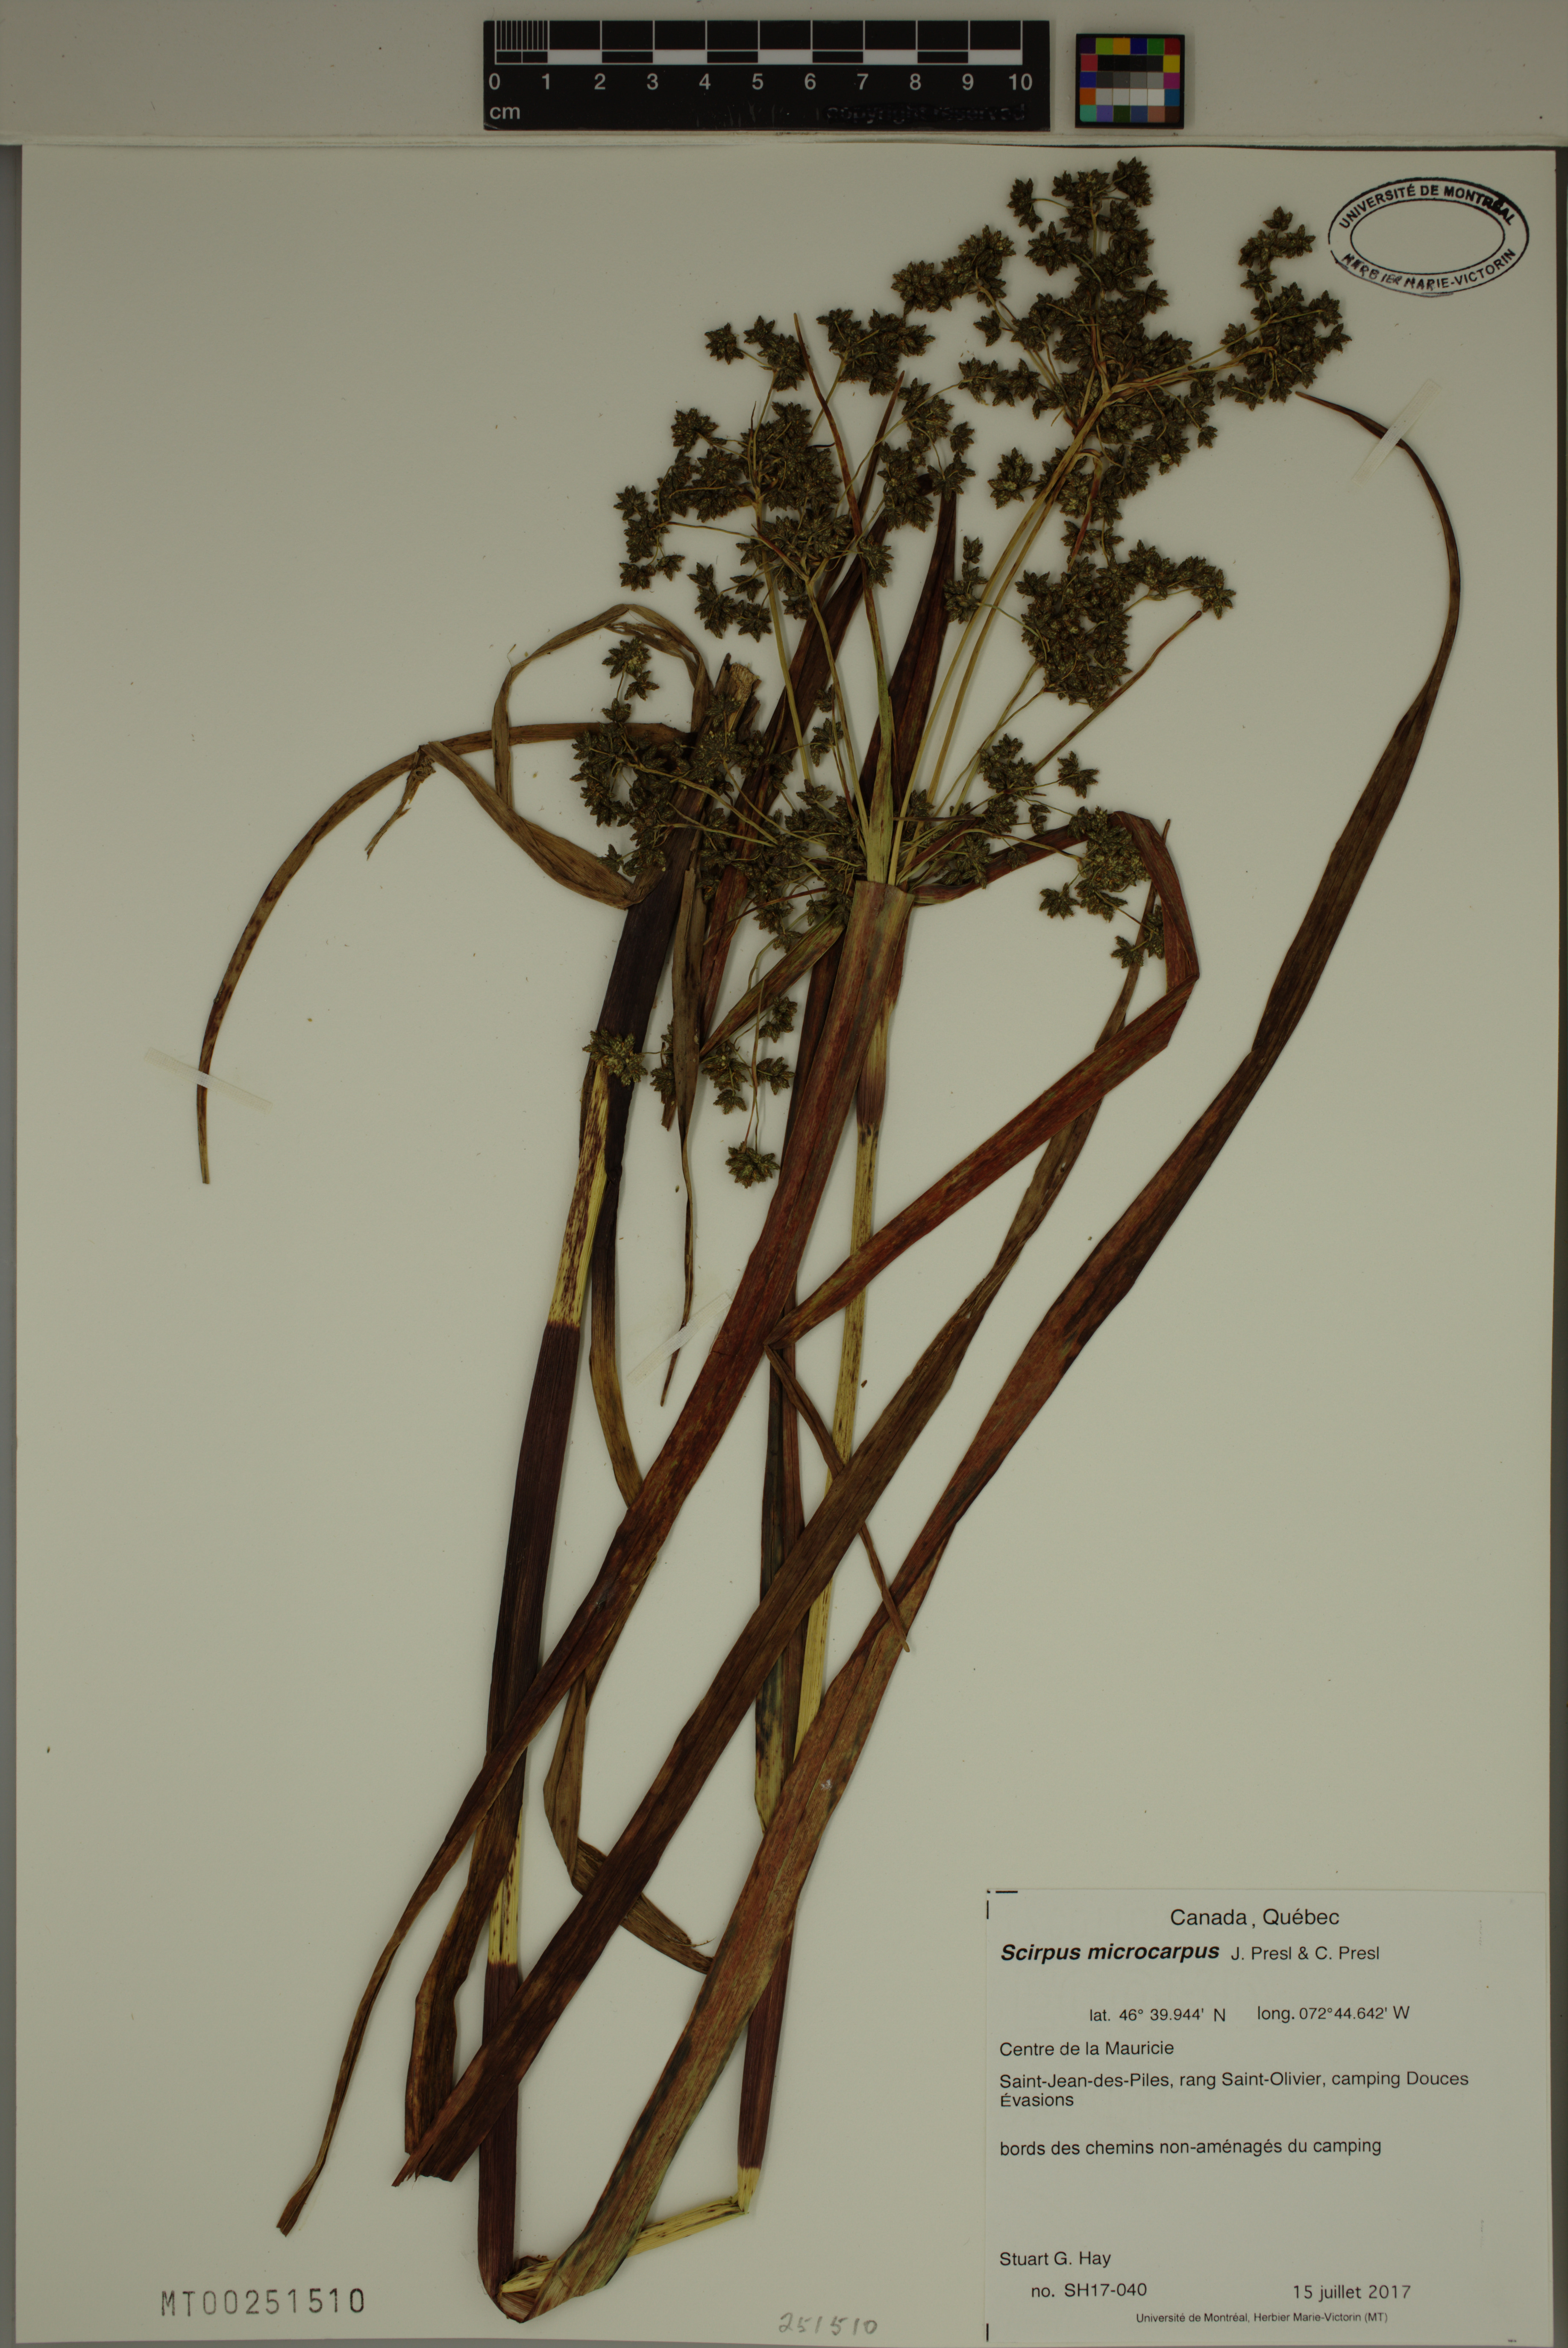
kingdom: Plantae
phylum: Tracheophyta
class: Liliopsida
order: Poales
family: Cyperaceae
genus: Scirpus
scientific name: Scirpus microcarpus
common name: Panicled bulrush
